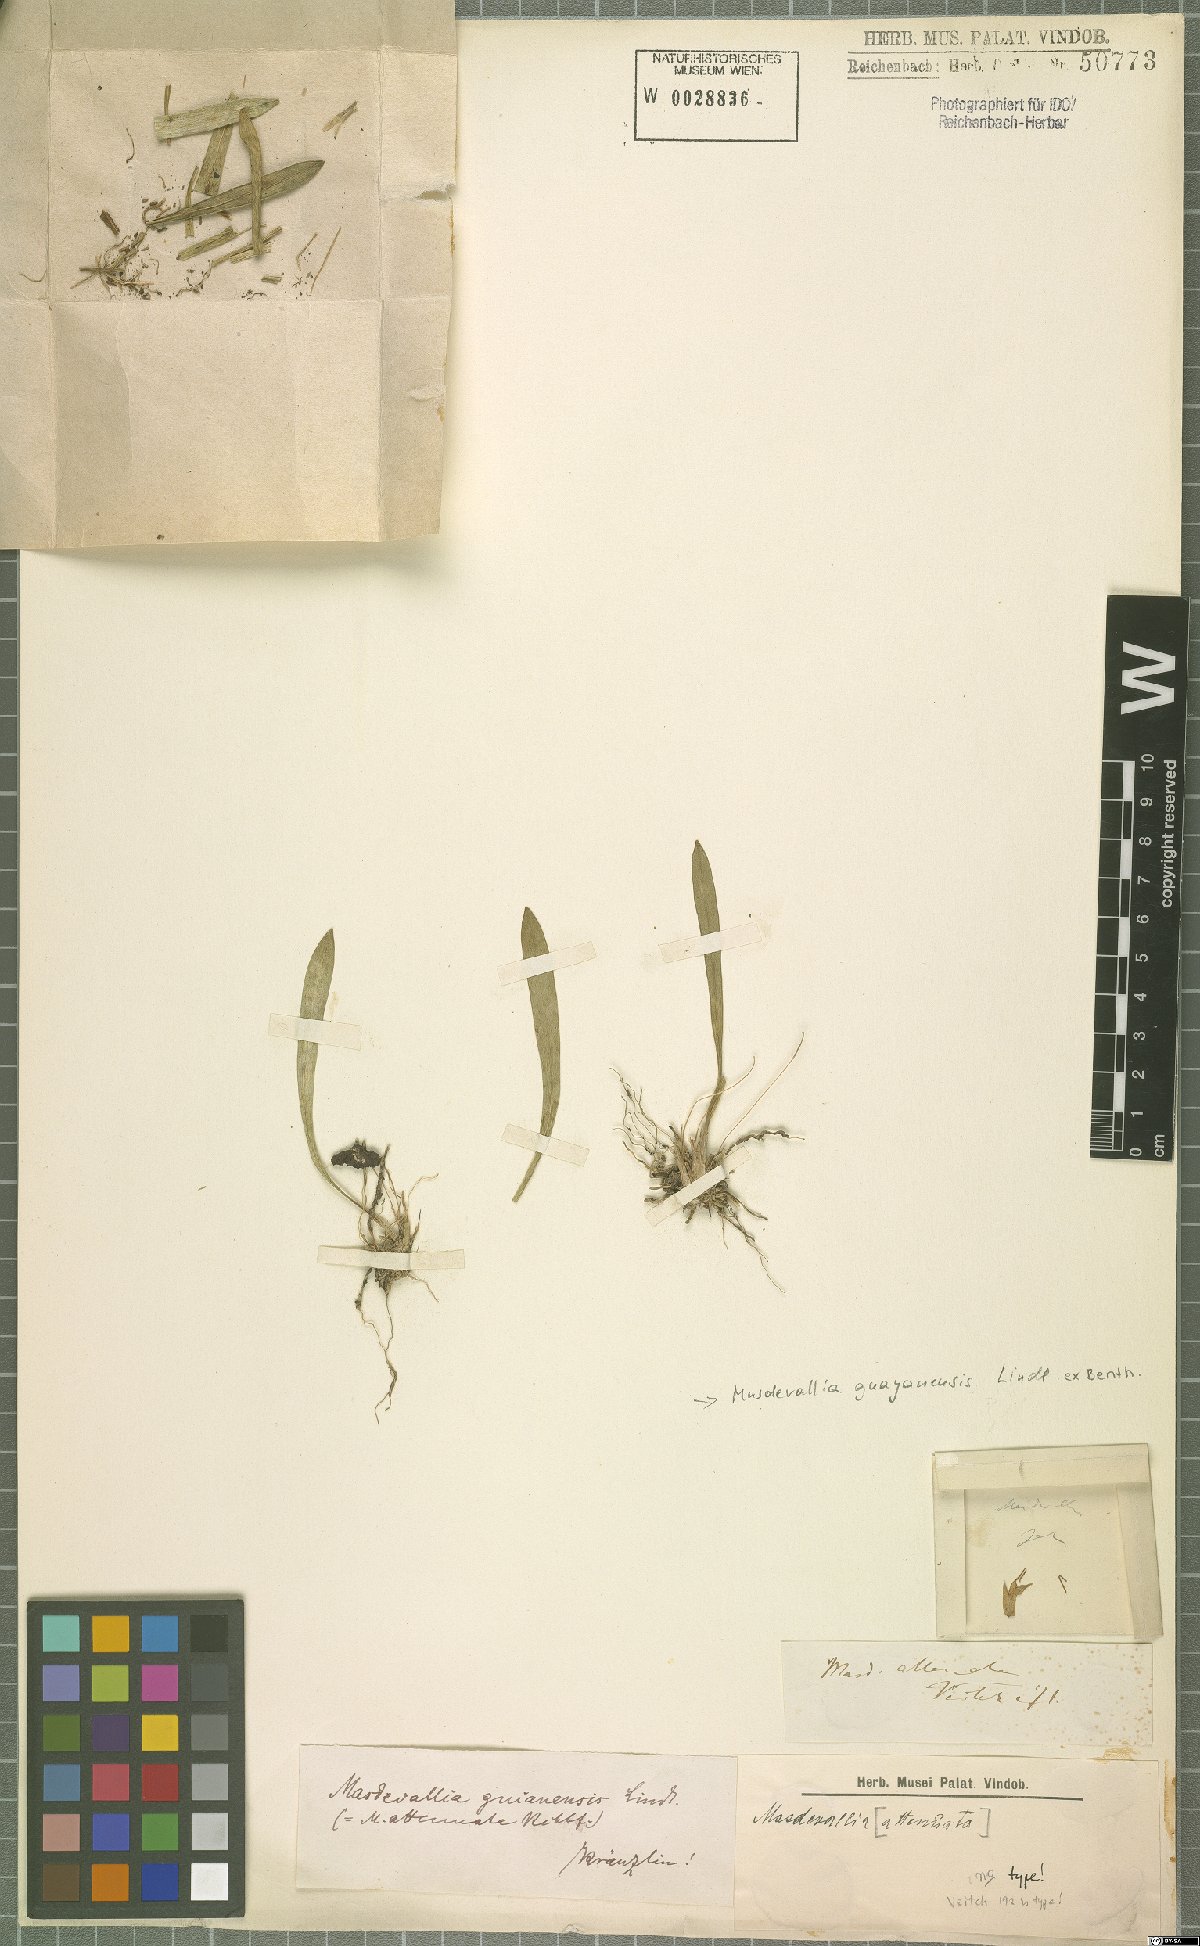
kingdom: Plantae
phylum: Tracheophyta
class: Liliopsida
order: Asparagales
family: Orchidaceae
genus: Masdevallia
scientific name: Masdevallia guayanensis
